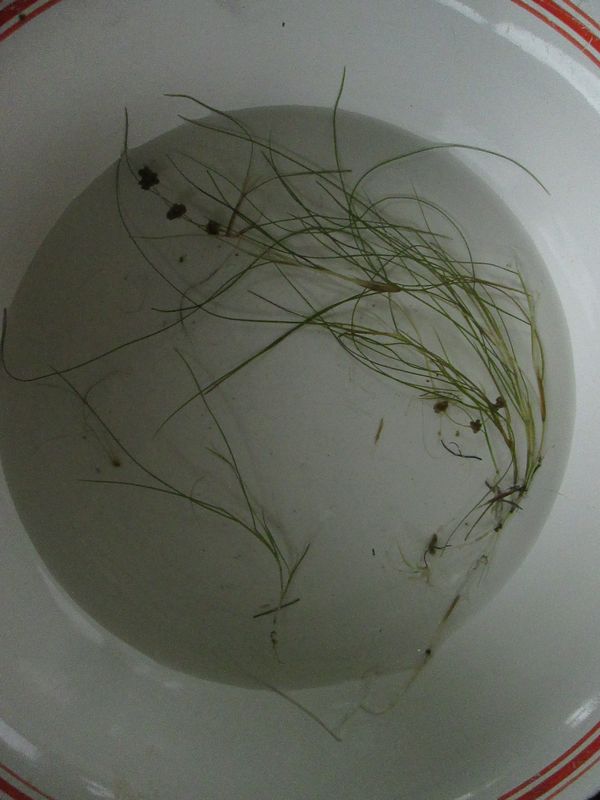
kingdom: Plantae
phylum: Tracheophyta
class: Liliopsida
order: Alismatales
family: Potamogetonaceae
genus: Stuckenia
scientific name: Stuckenia pectinata
